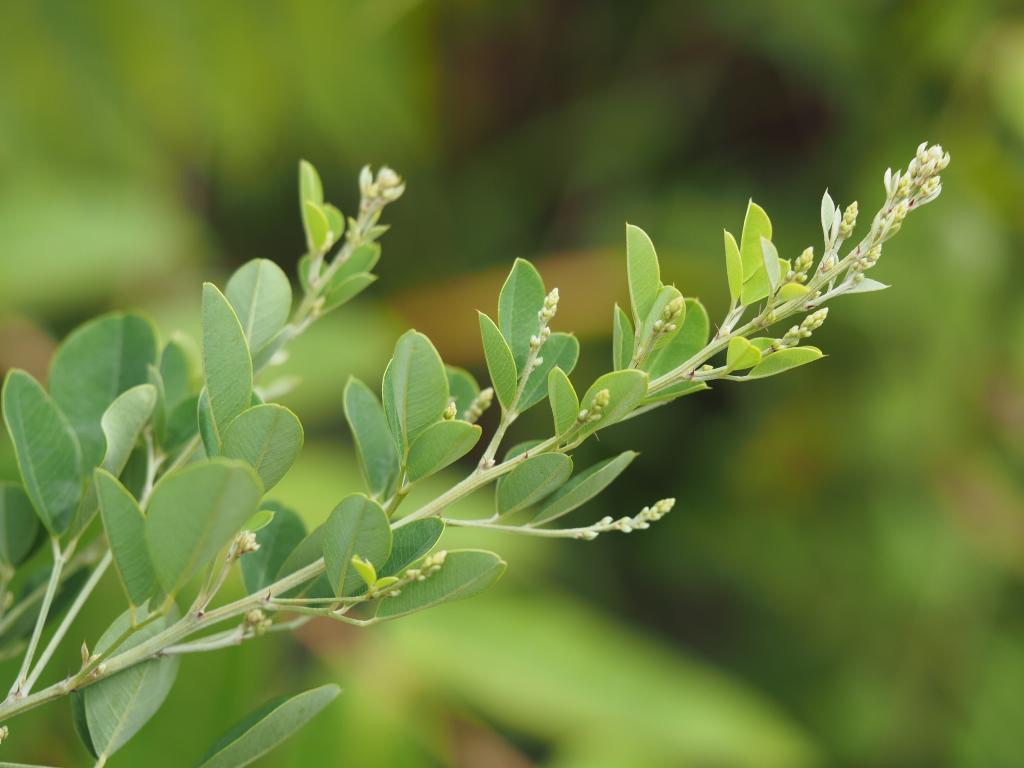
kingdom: Plantae
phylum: Tracheophyta
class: Magnoliopsida
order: Fabales
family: Fabaceae
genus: Lespedeza
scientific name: Lespedeza thunbergii
